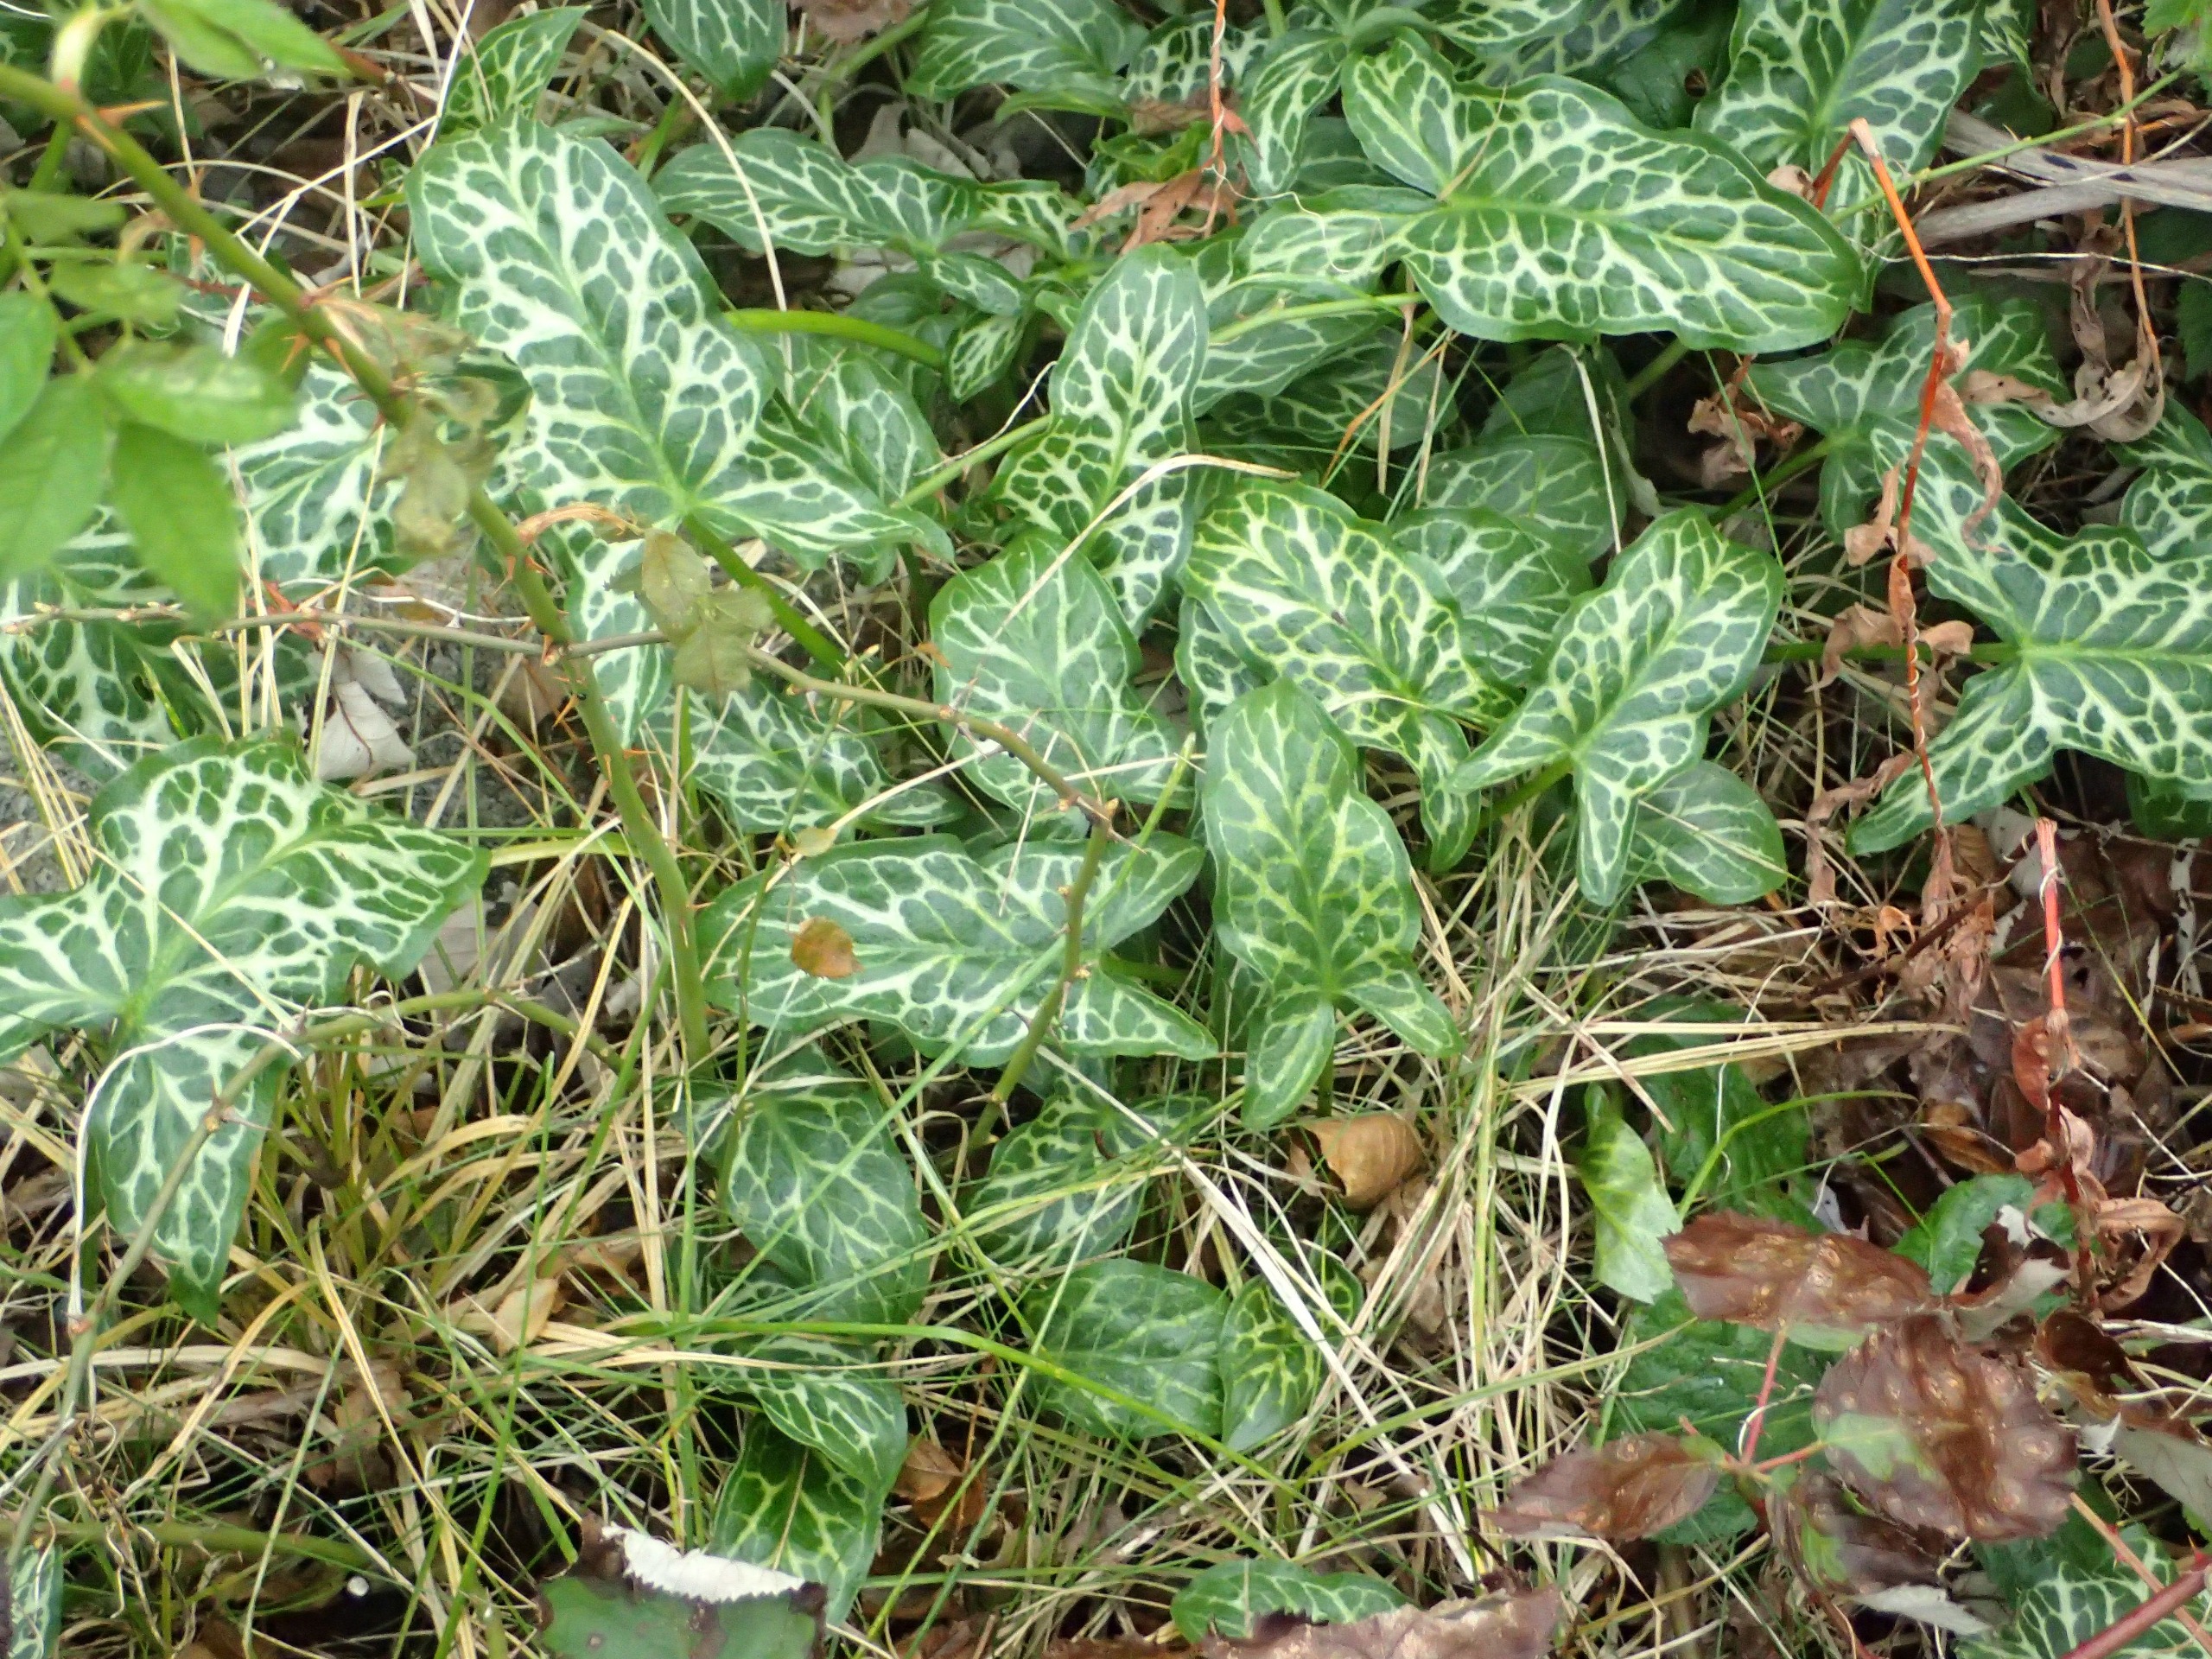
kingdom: Plantae
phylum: Tracheophyta
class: Liliopsida
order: Alismatales
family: Araceae
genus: Arum
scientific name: Arum italicum
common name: Italiensk arum
